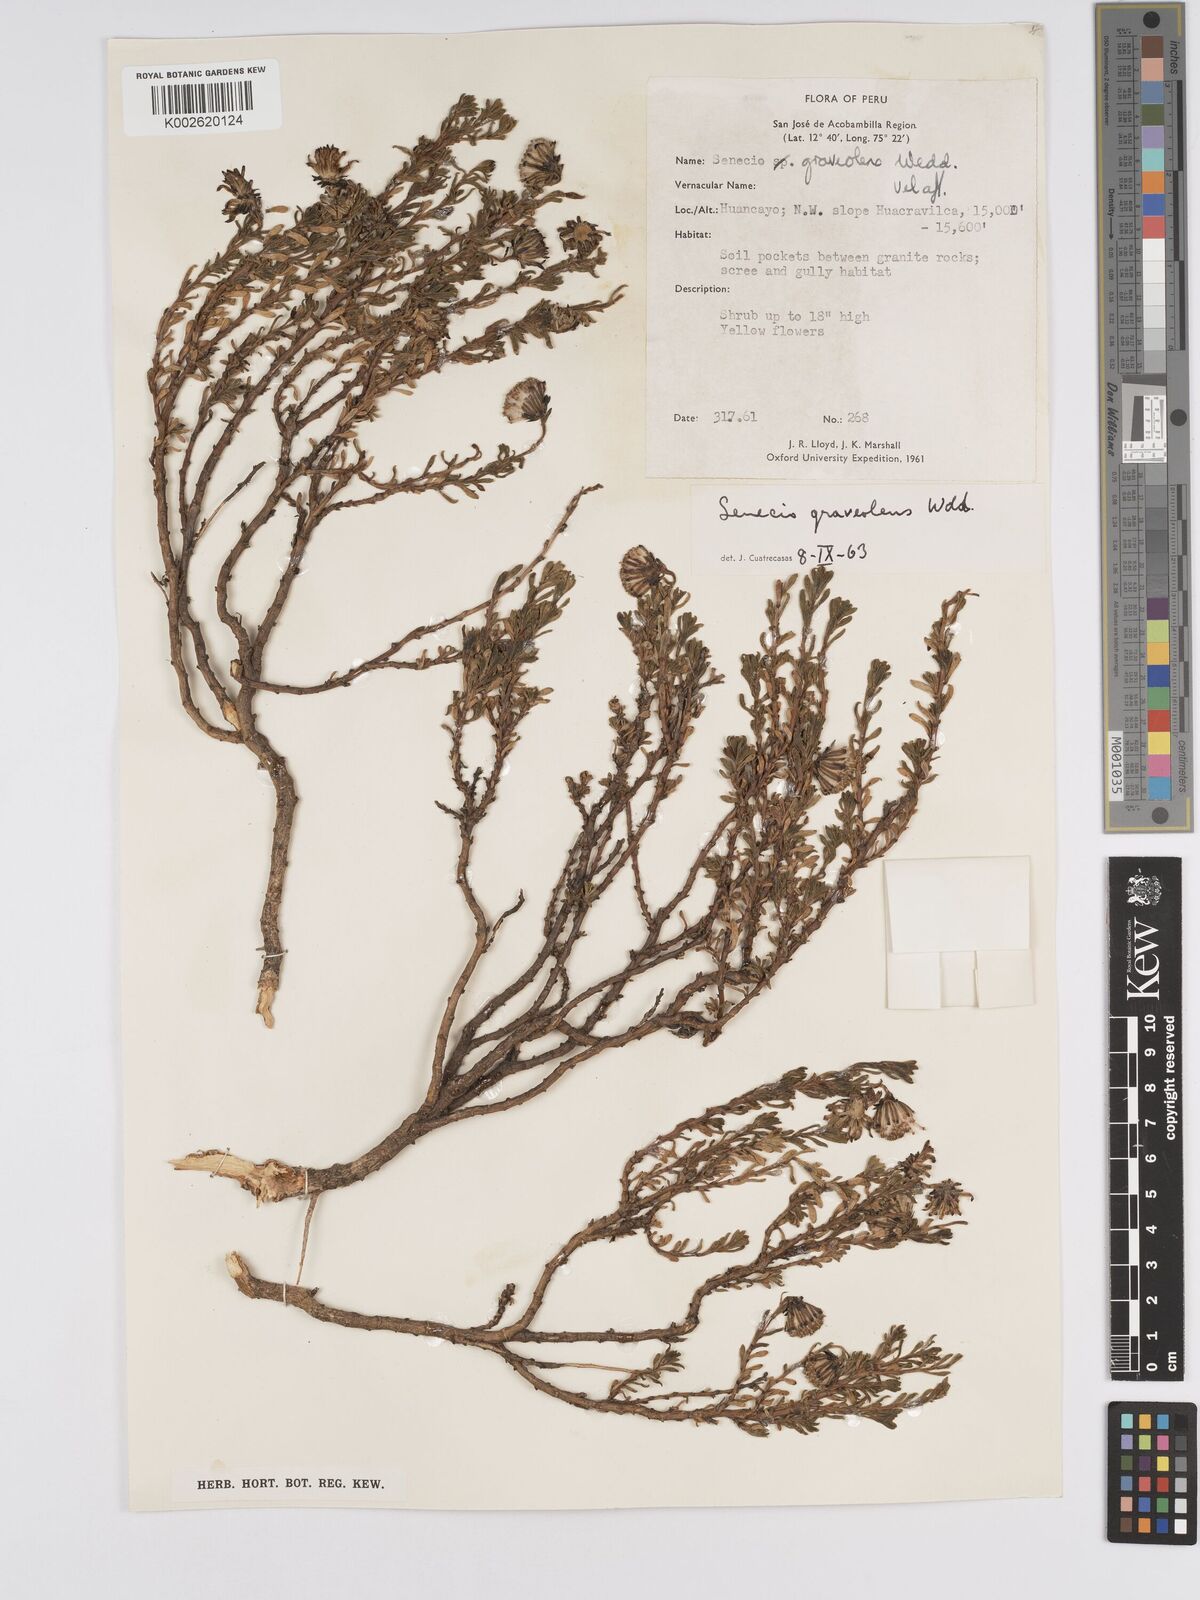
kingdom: Plantae
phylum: Tracheophyta
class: Magnoliopsida
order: Asterales
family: Asteraceae
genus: Senecio
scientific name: Senecio nutans
